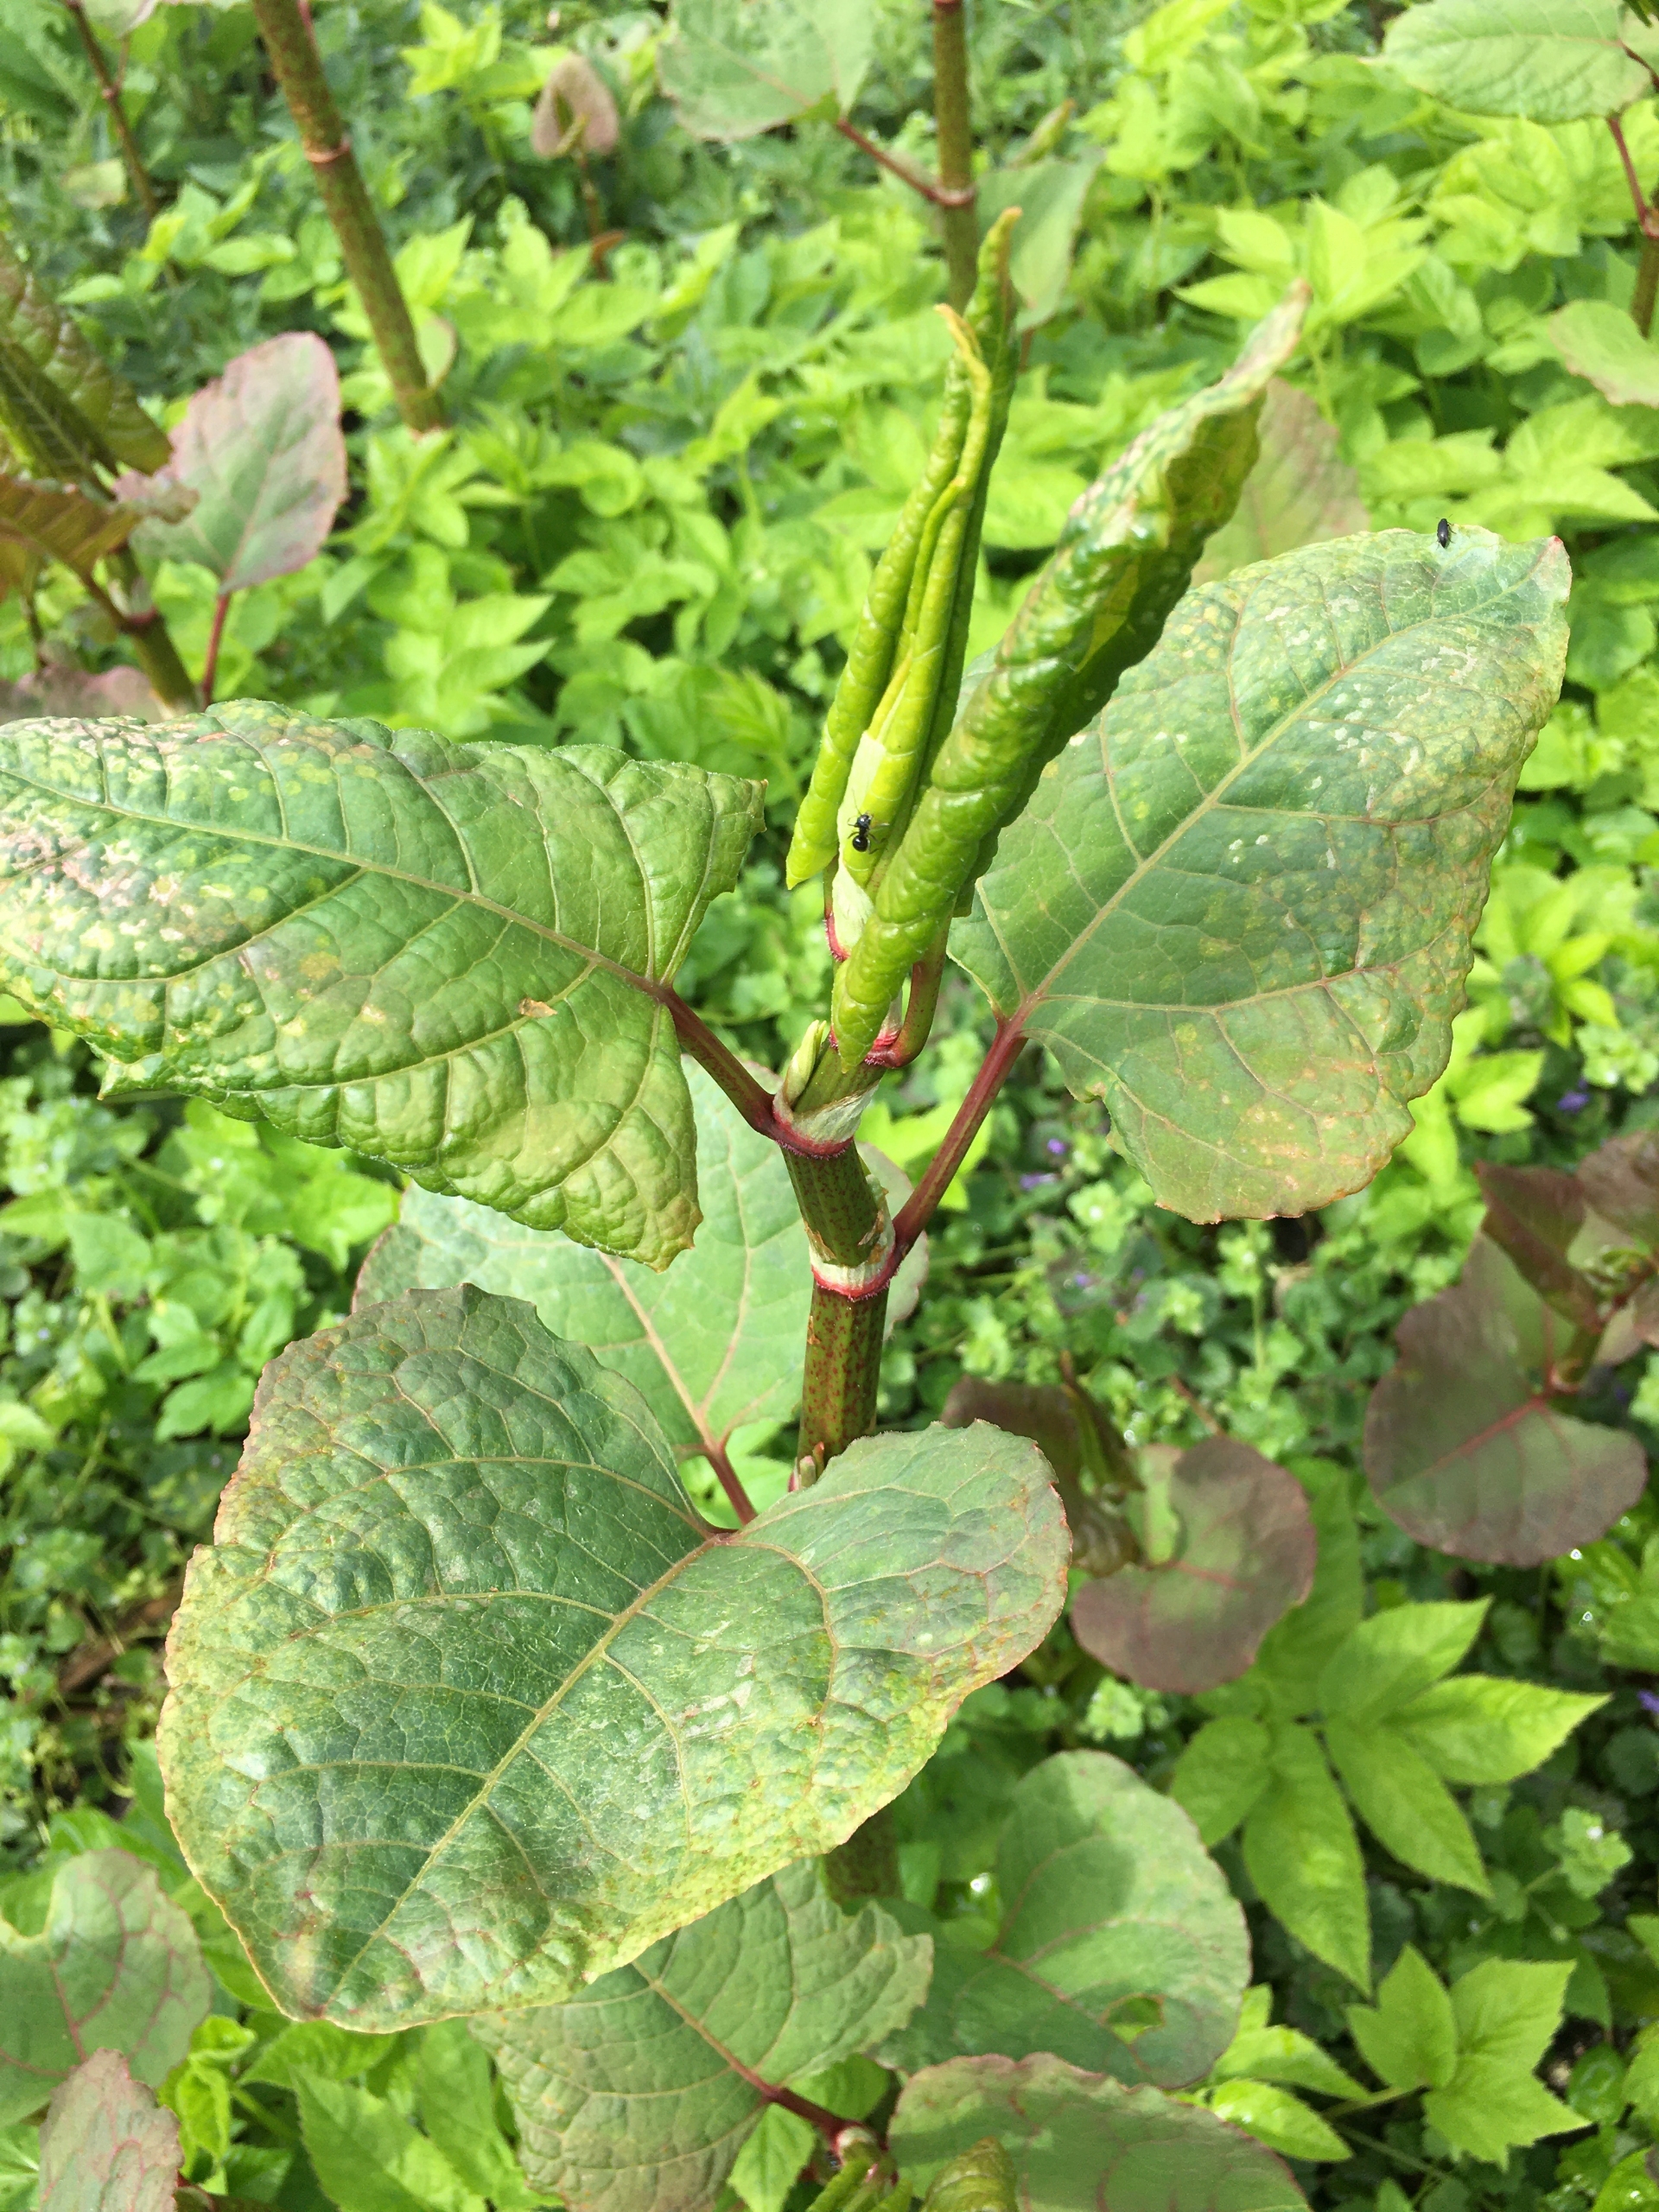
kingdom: Plantae
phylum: Tracheophyta
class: Magnoliopsida
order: Caryophyllales
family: Polygonaceae
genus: Reynoutria
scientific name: Reynoutria bohemica
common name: Hybrid-pileurt
